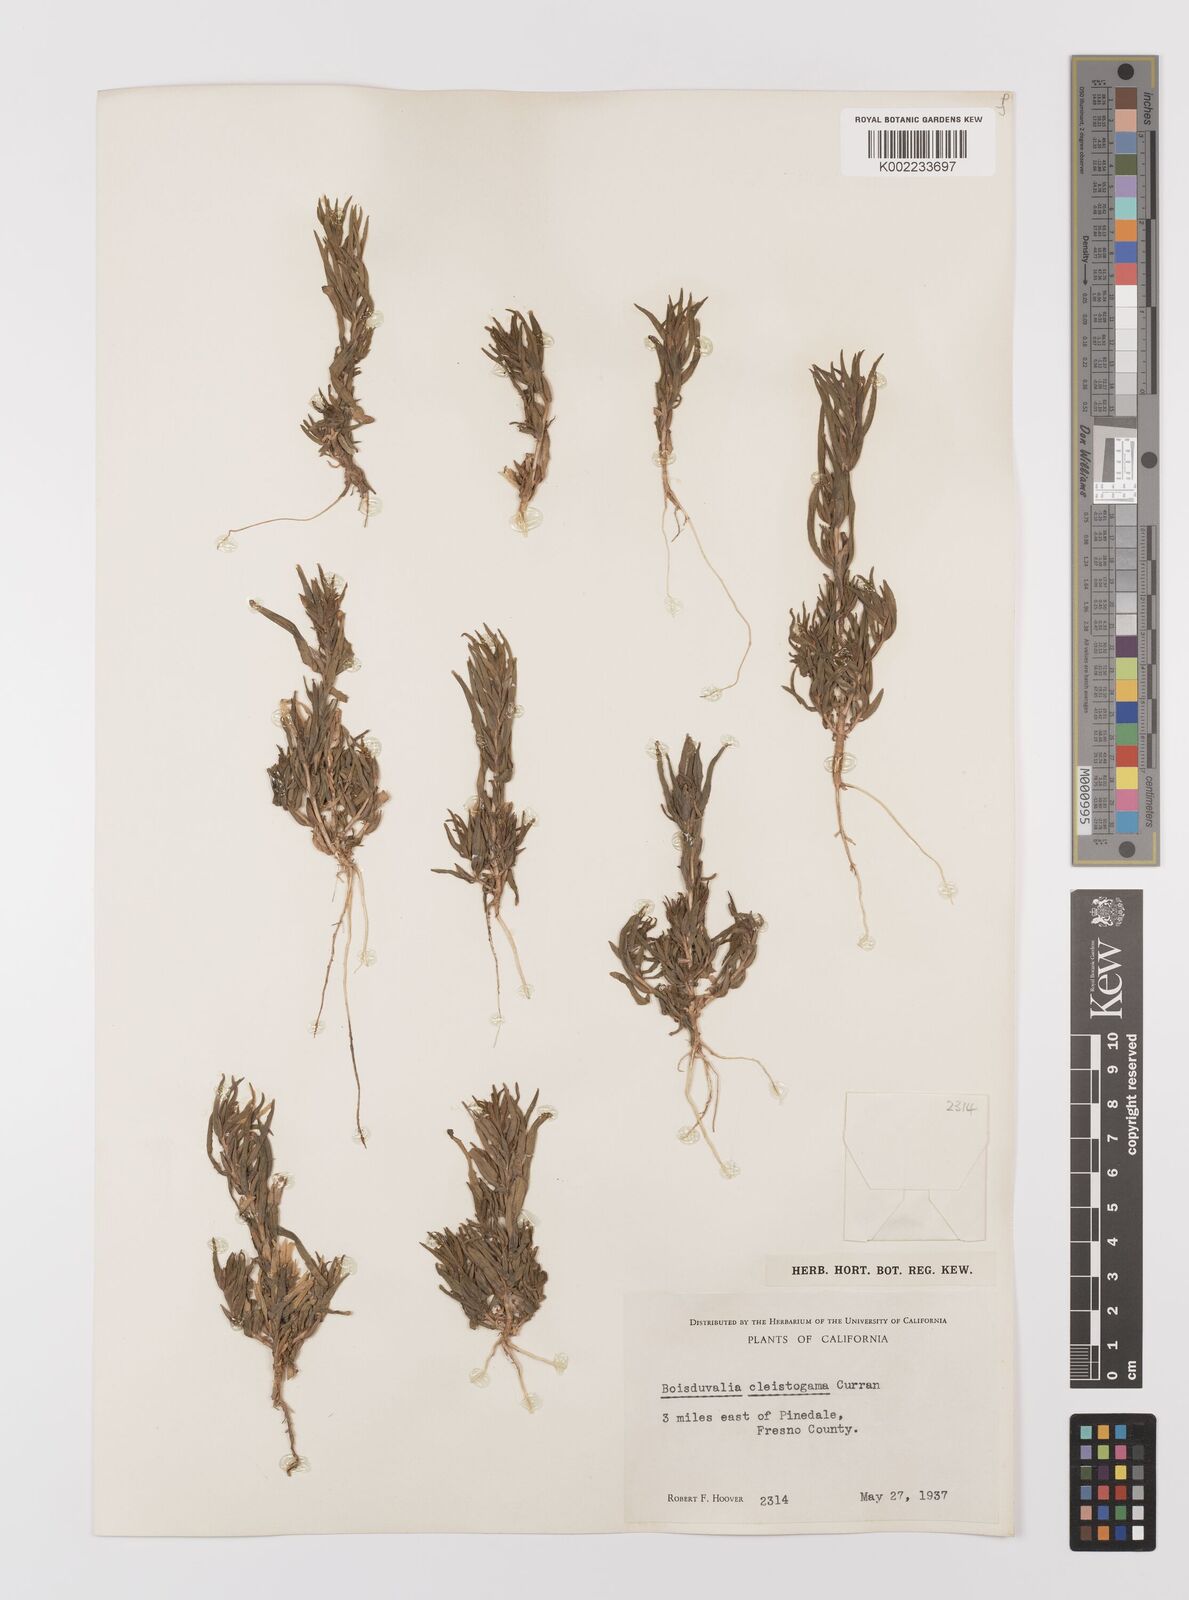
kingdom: Plantae
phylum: Tracheophyta
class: Magnoliopsida
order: Myrtales
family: Onagraceae
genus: Epilobium
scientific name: Epilobium cleistogamum
